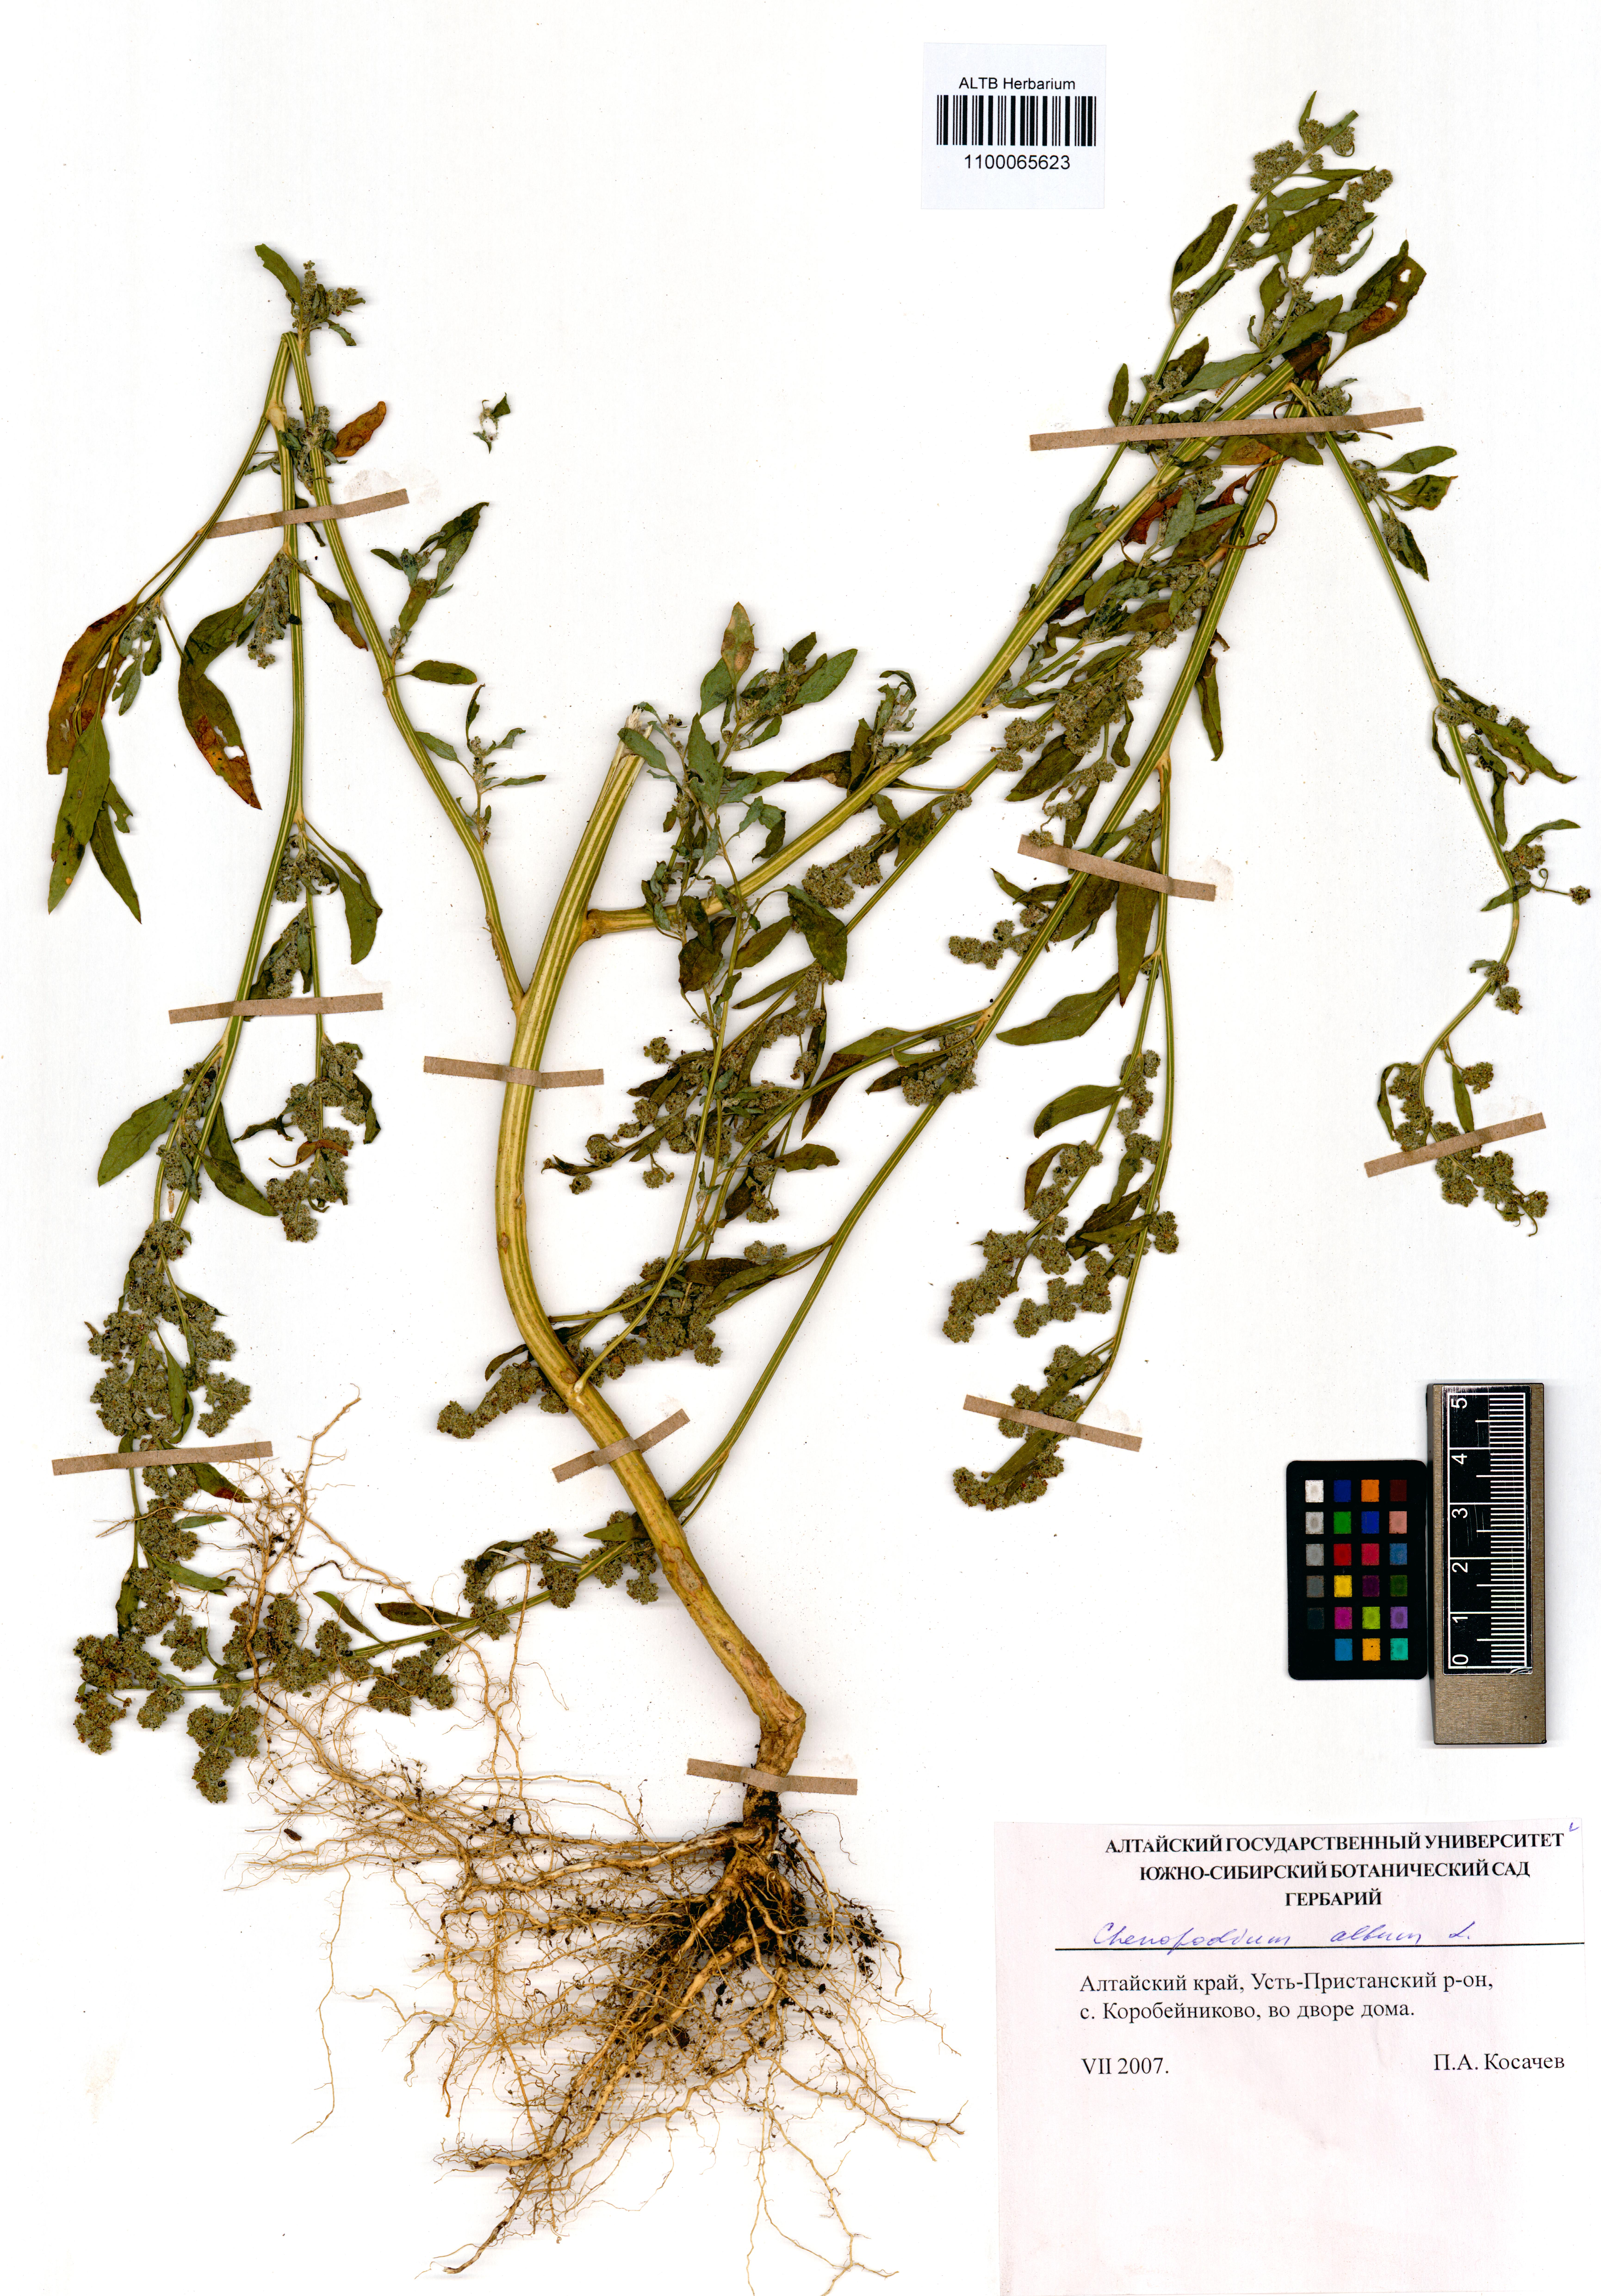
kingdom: Plantae
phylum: Tracheophyta
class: Magnoliopsida
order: Caryophyllales
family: Amaranthaceae
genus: Chenopodium
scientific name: Chenopodium album
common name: Fat-hen
